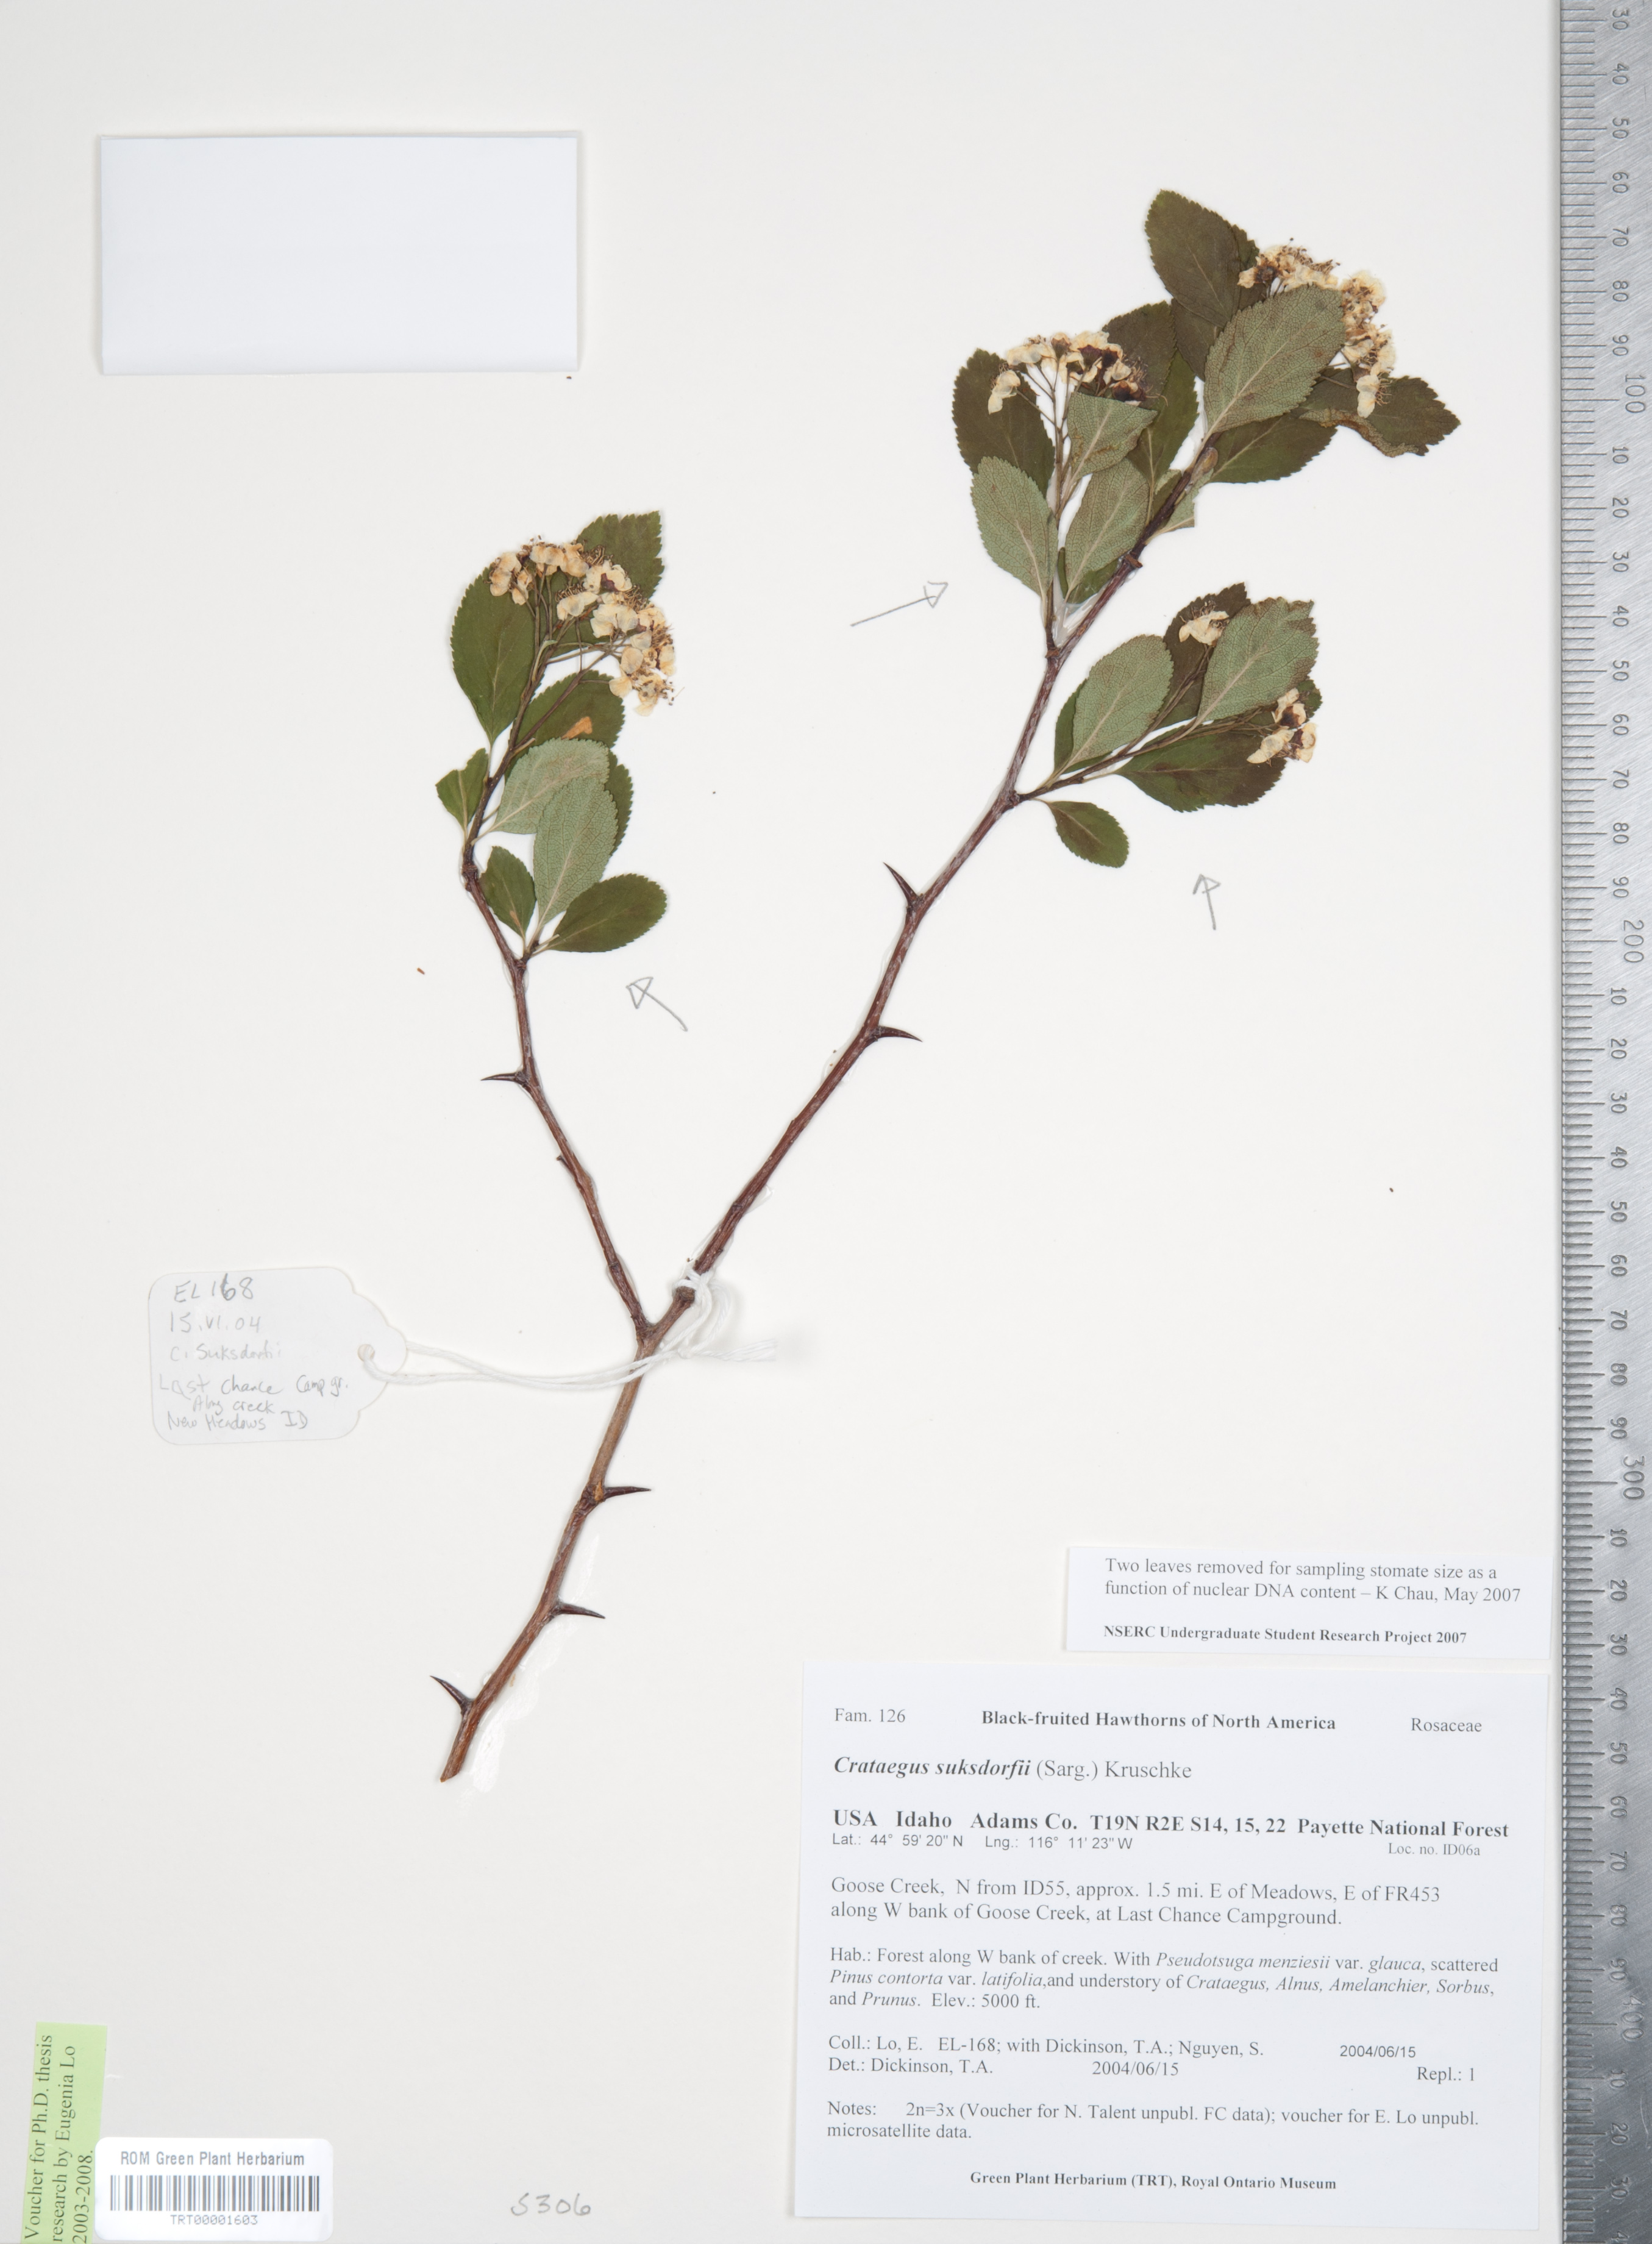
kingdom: Plantae
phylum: Tracheophyta
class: Magnoliopsida
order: Rosales
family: Rosaceae
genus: Crataegus
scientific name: Crataegus gaylussacia
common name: Huckleberry hawthorn
